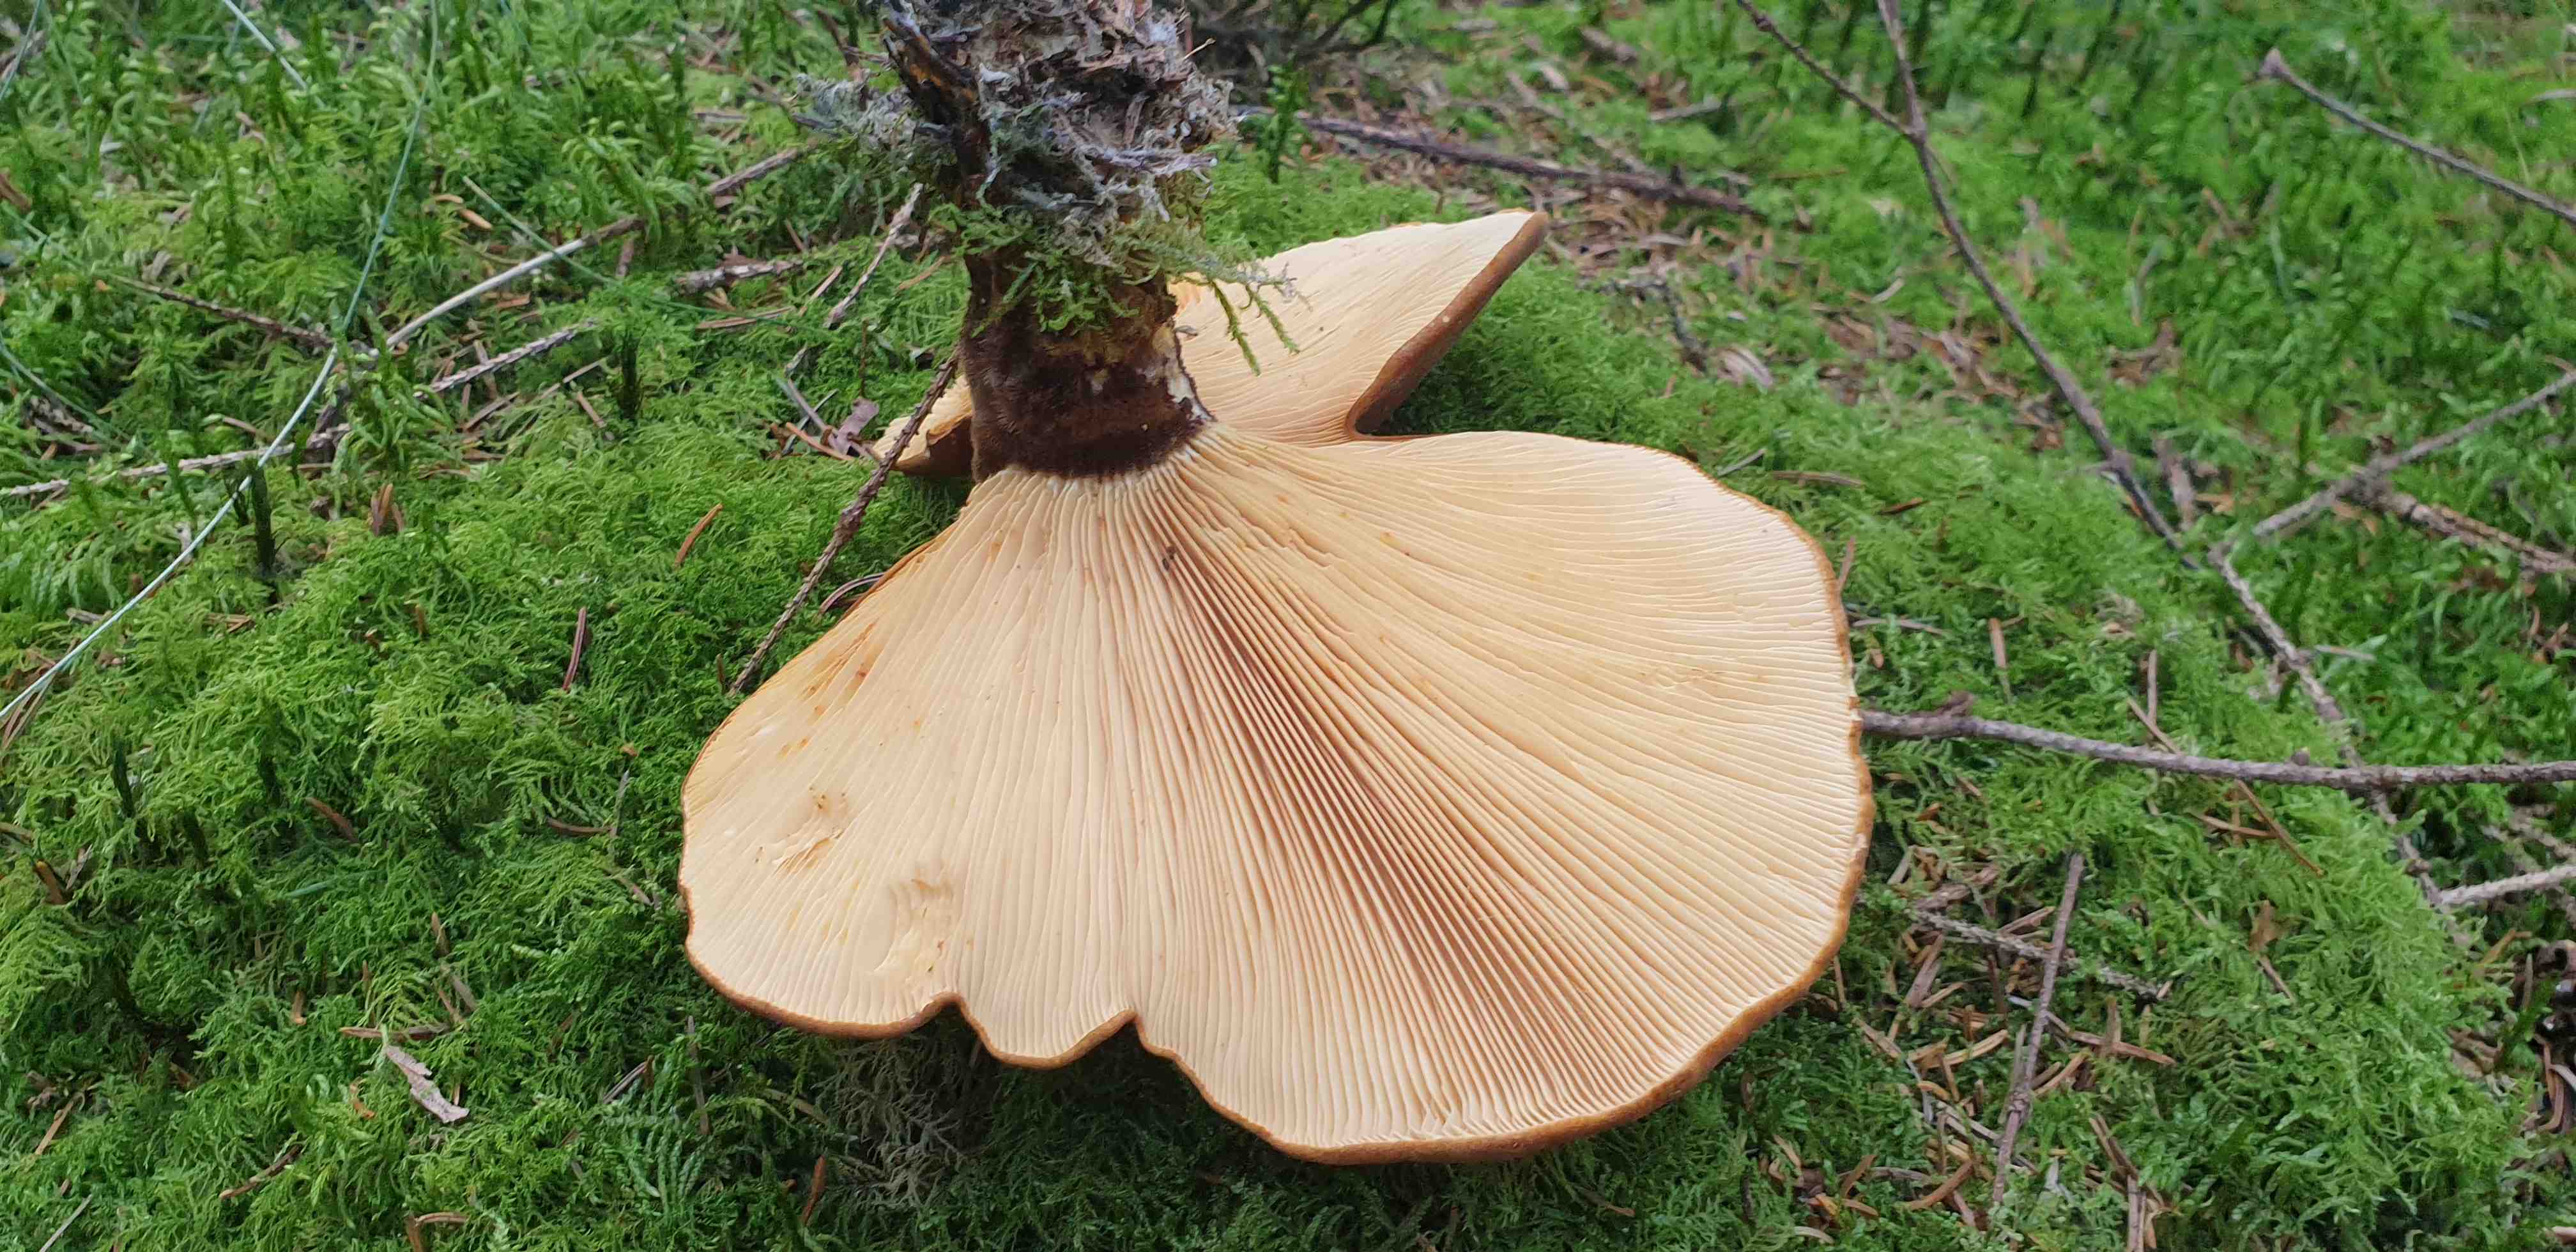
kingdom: Fungi
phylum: Basidiomycota
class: Agaricomycetes
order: Boletales
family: Tapinellaceae
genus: Tapinella
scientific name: Tapinella atrotomentosa
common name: sortfiltet viftesvamp
